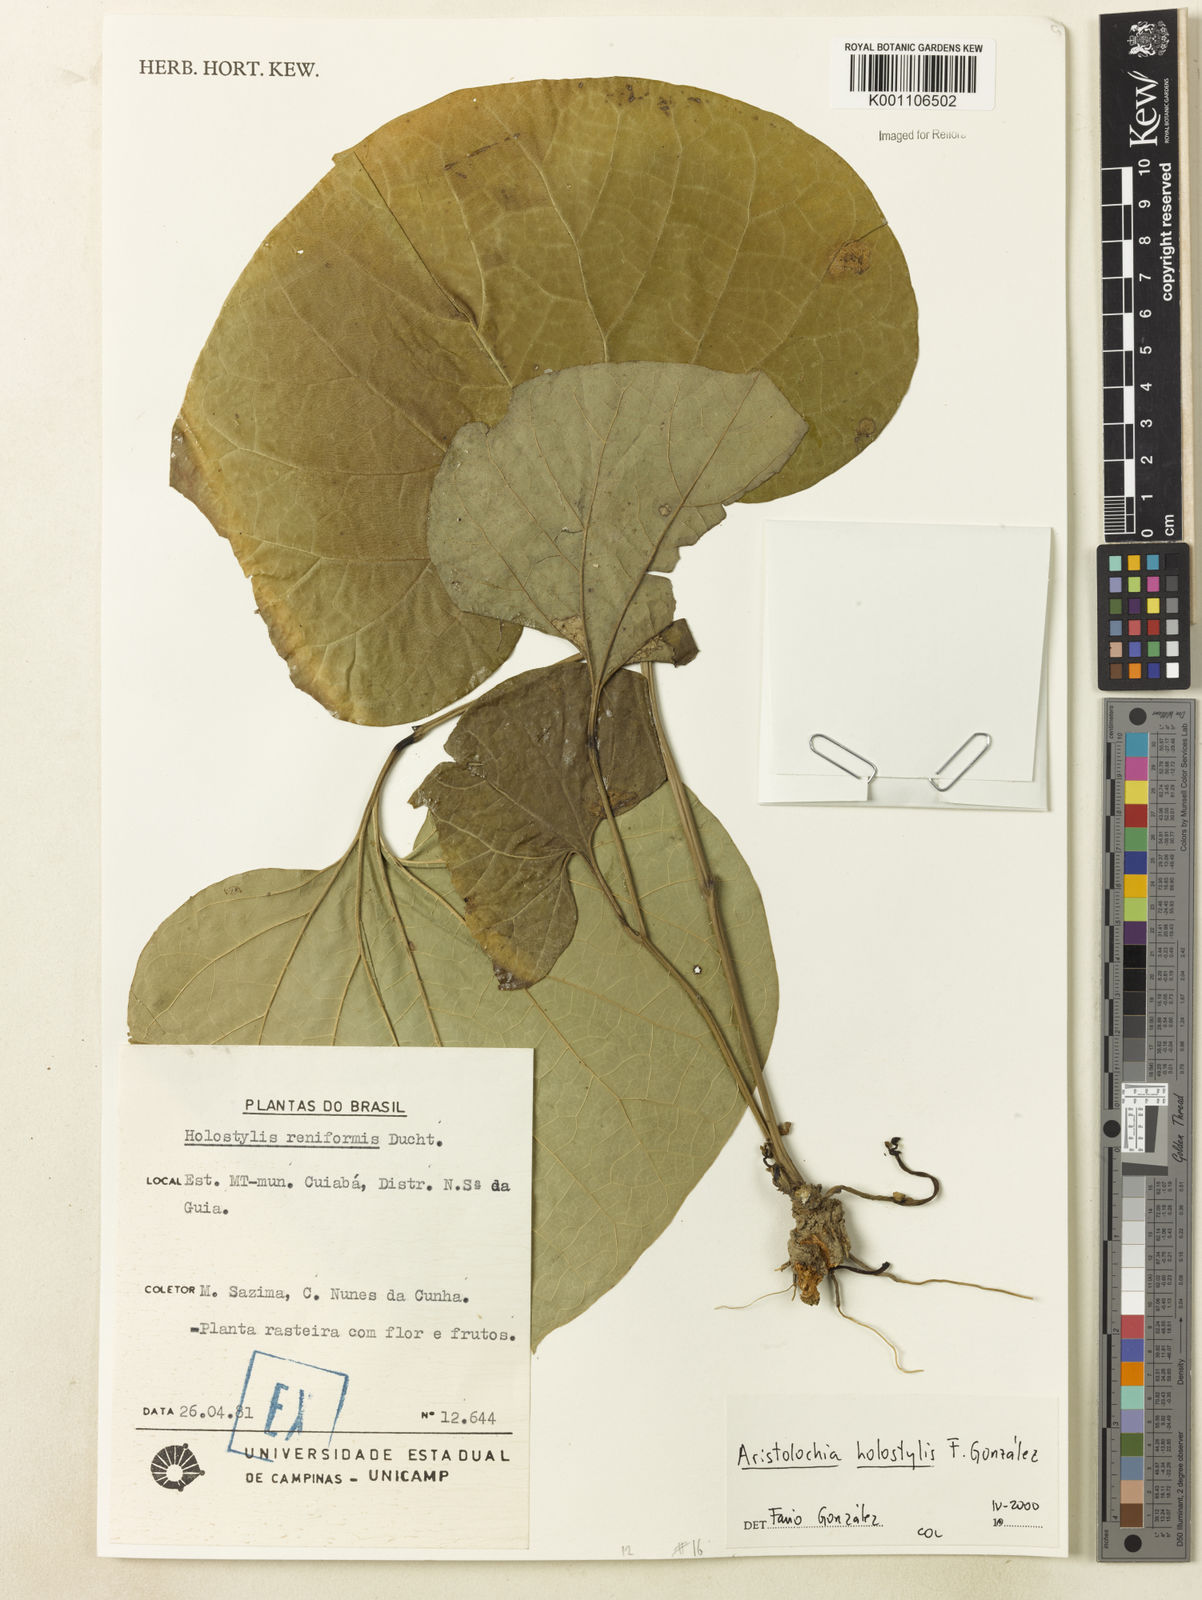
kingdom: Plantae
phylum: Tracheophyta
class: Magnoliopsida
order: Piperales
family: Aristolochiaceae
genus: Aristolochia
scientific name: Aristolochia
